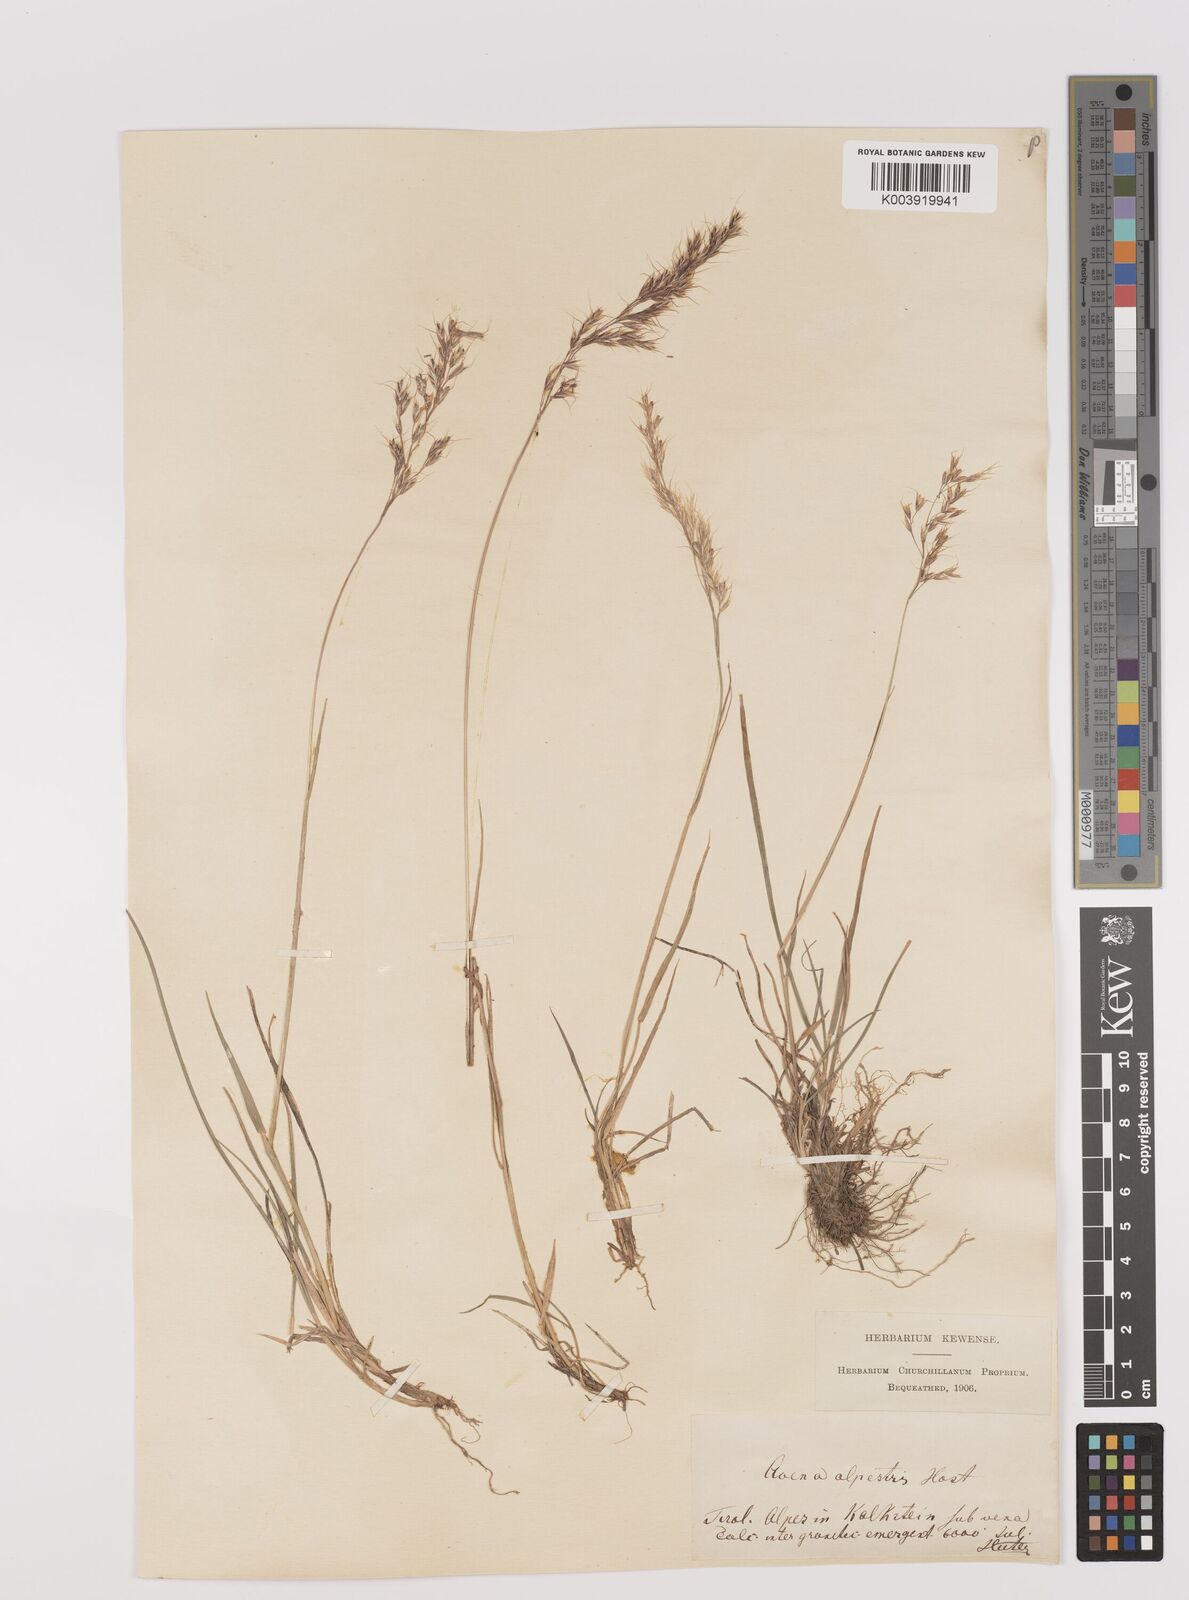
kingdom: Plantae
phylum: Tracheophyta
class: Liliopsida
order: Poales
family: Poaceae
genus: Trisetum
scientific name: Trisetum alpestre
